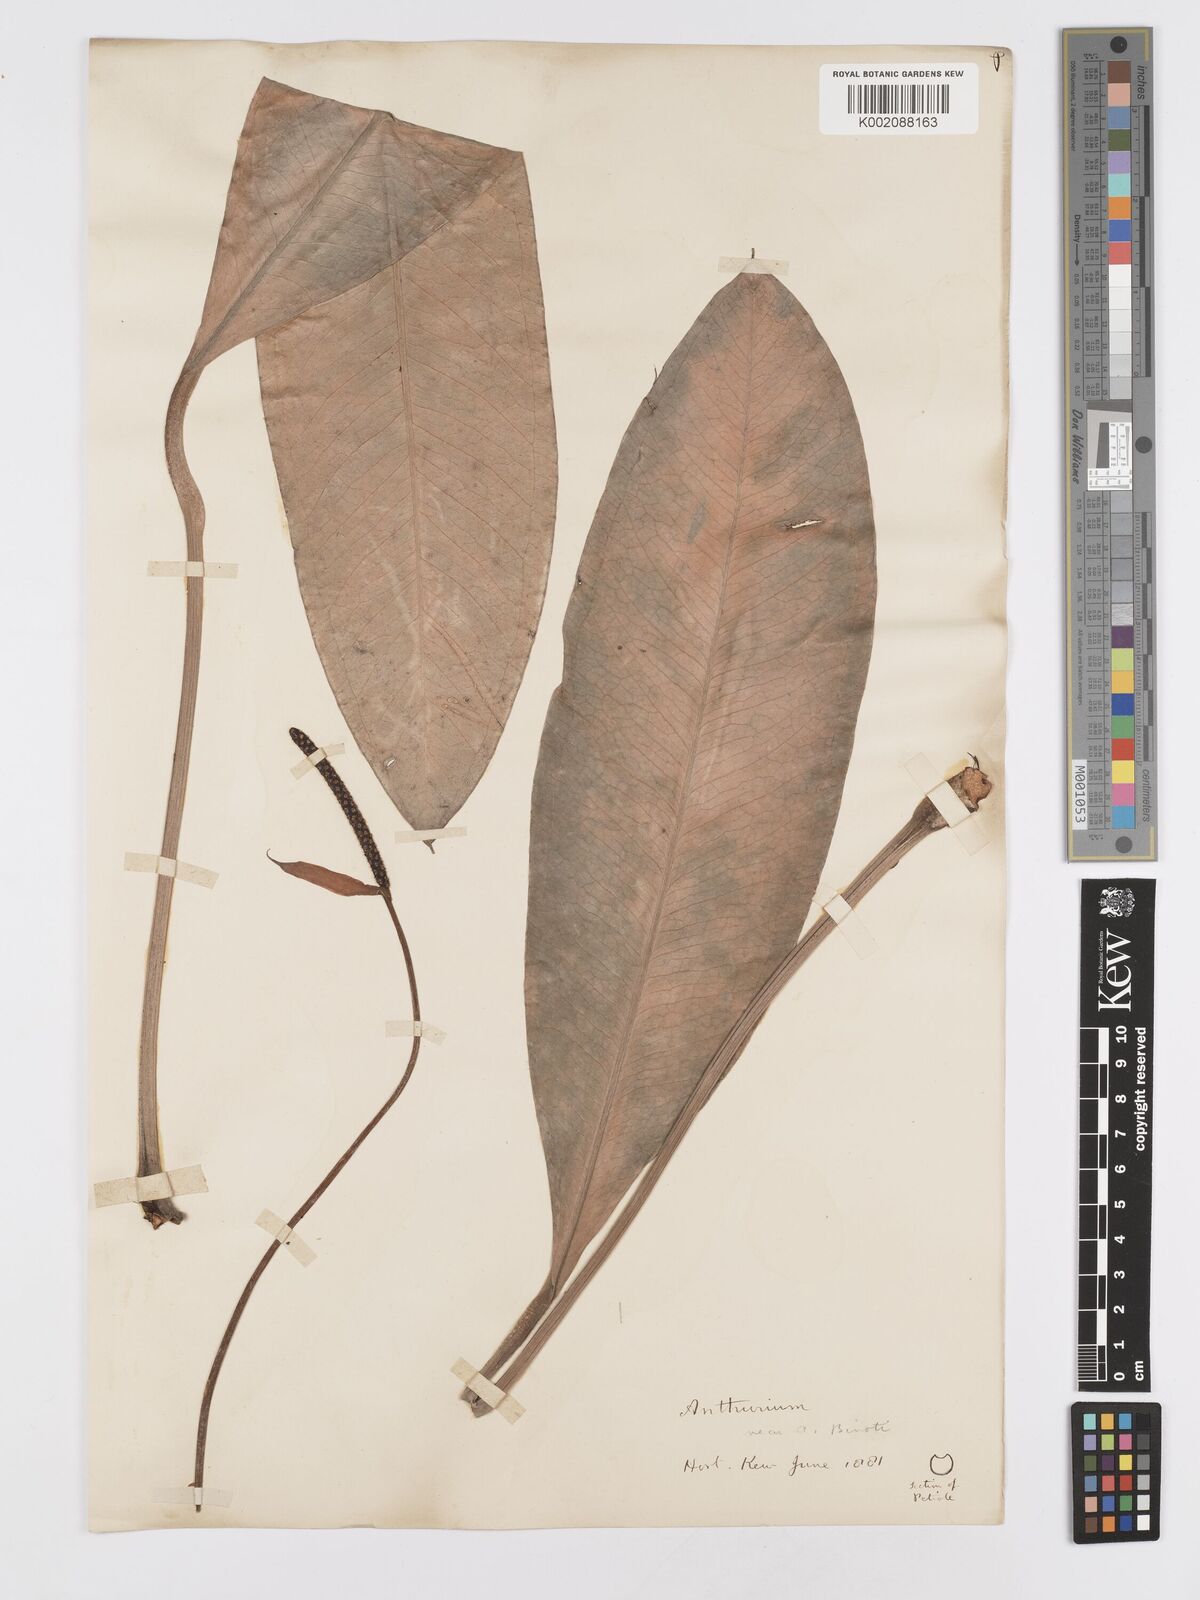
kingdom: Plantae
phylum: Tracheophyta
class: Liliopsida
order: Alismatales
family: Araceae
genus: Anthurium
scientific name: Anthurium
